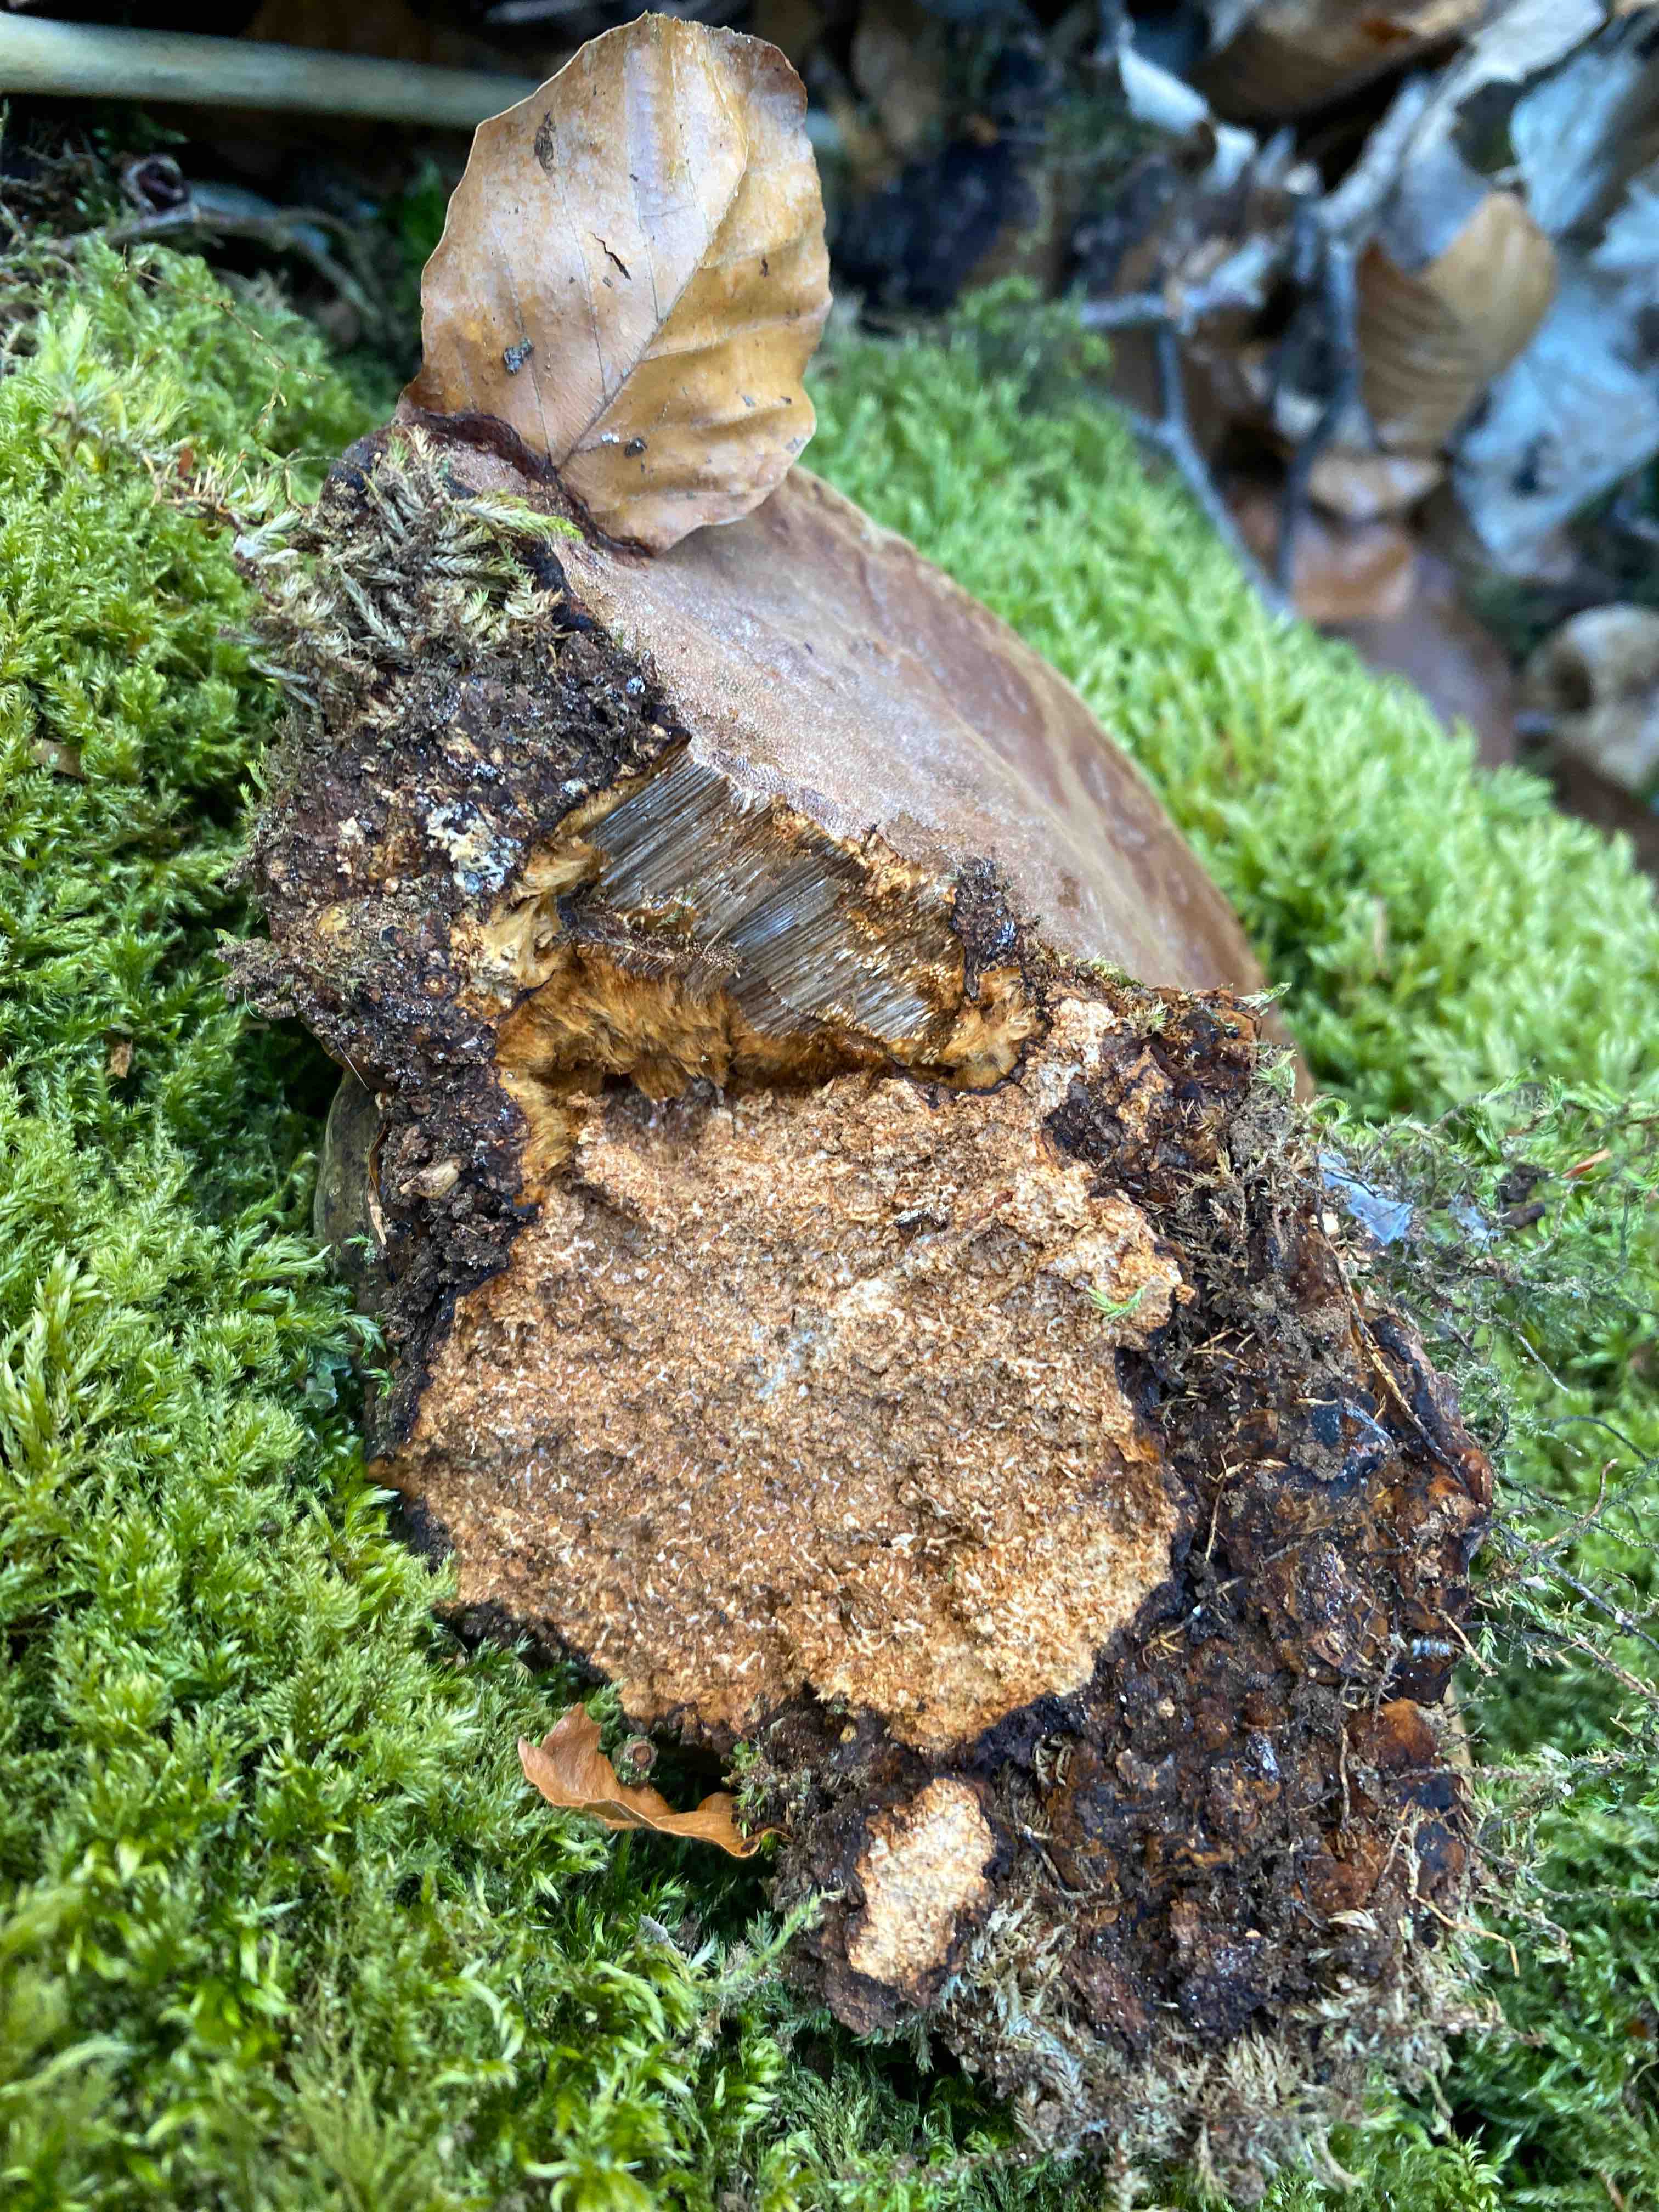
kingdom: Fungi
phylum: Basidiomycota
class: Agaricomycetes
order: Polyporales
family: Polyporaceae
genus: Fomes
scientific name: Fomes fomentarius
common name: tøndersvamp
